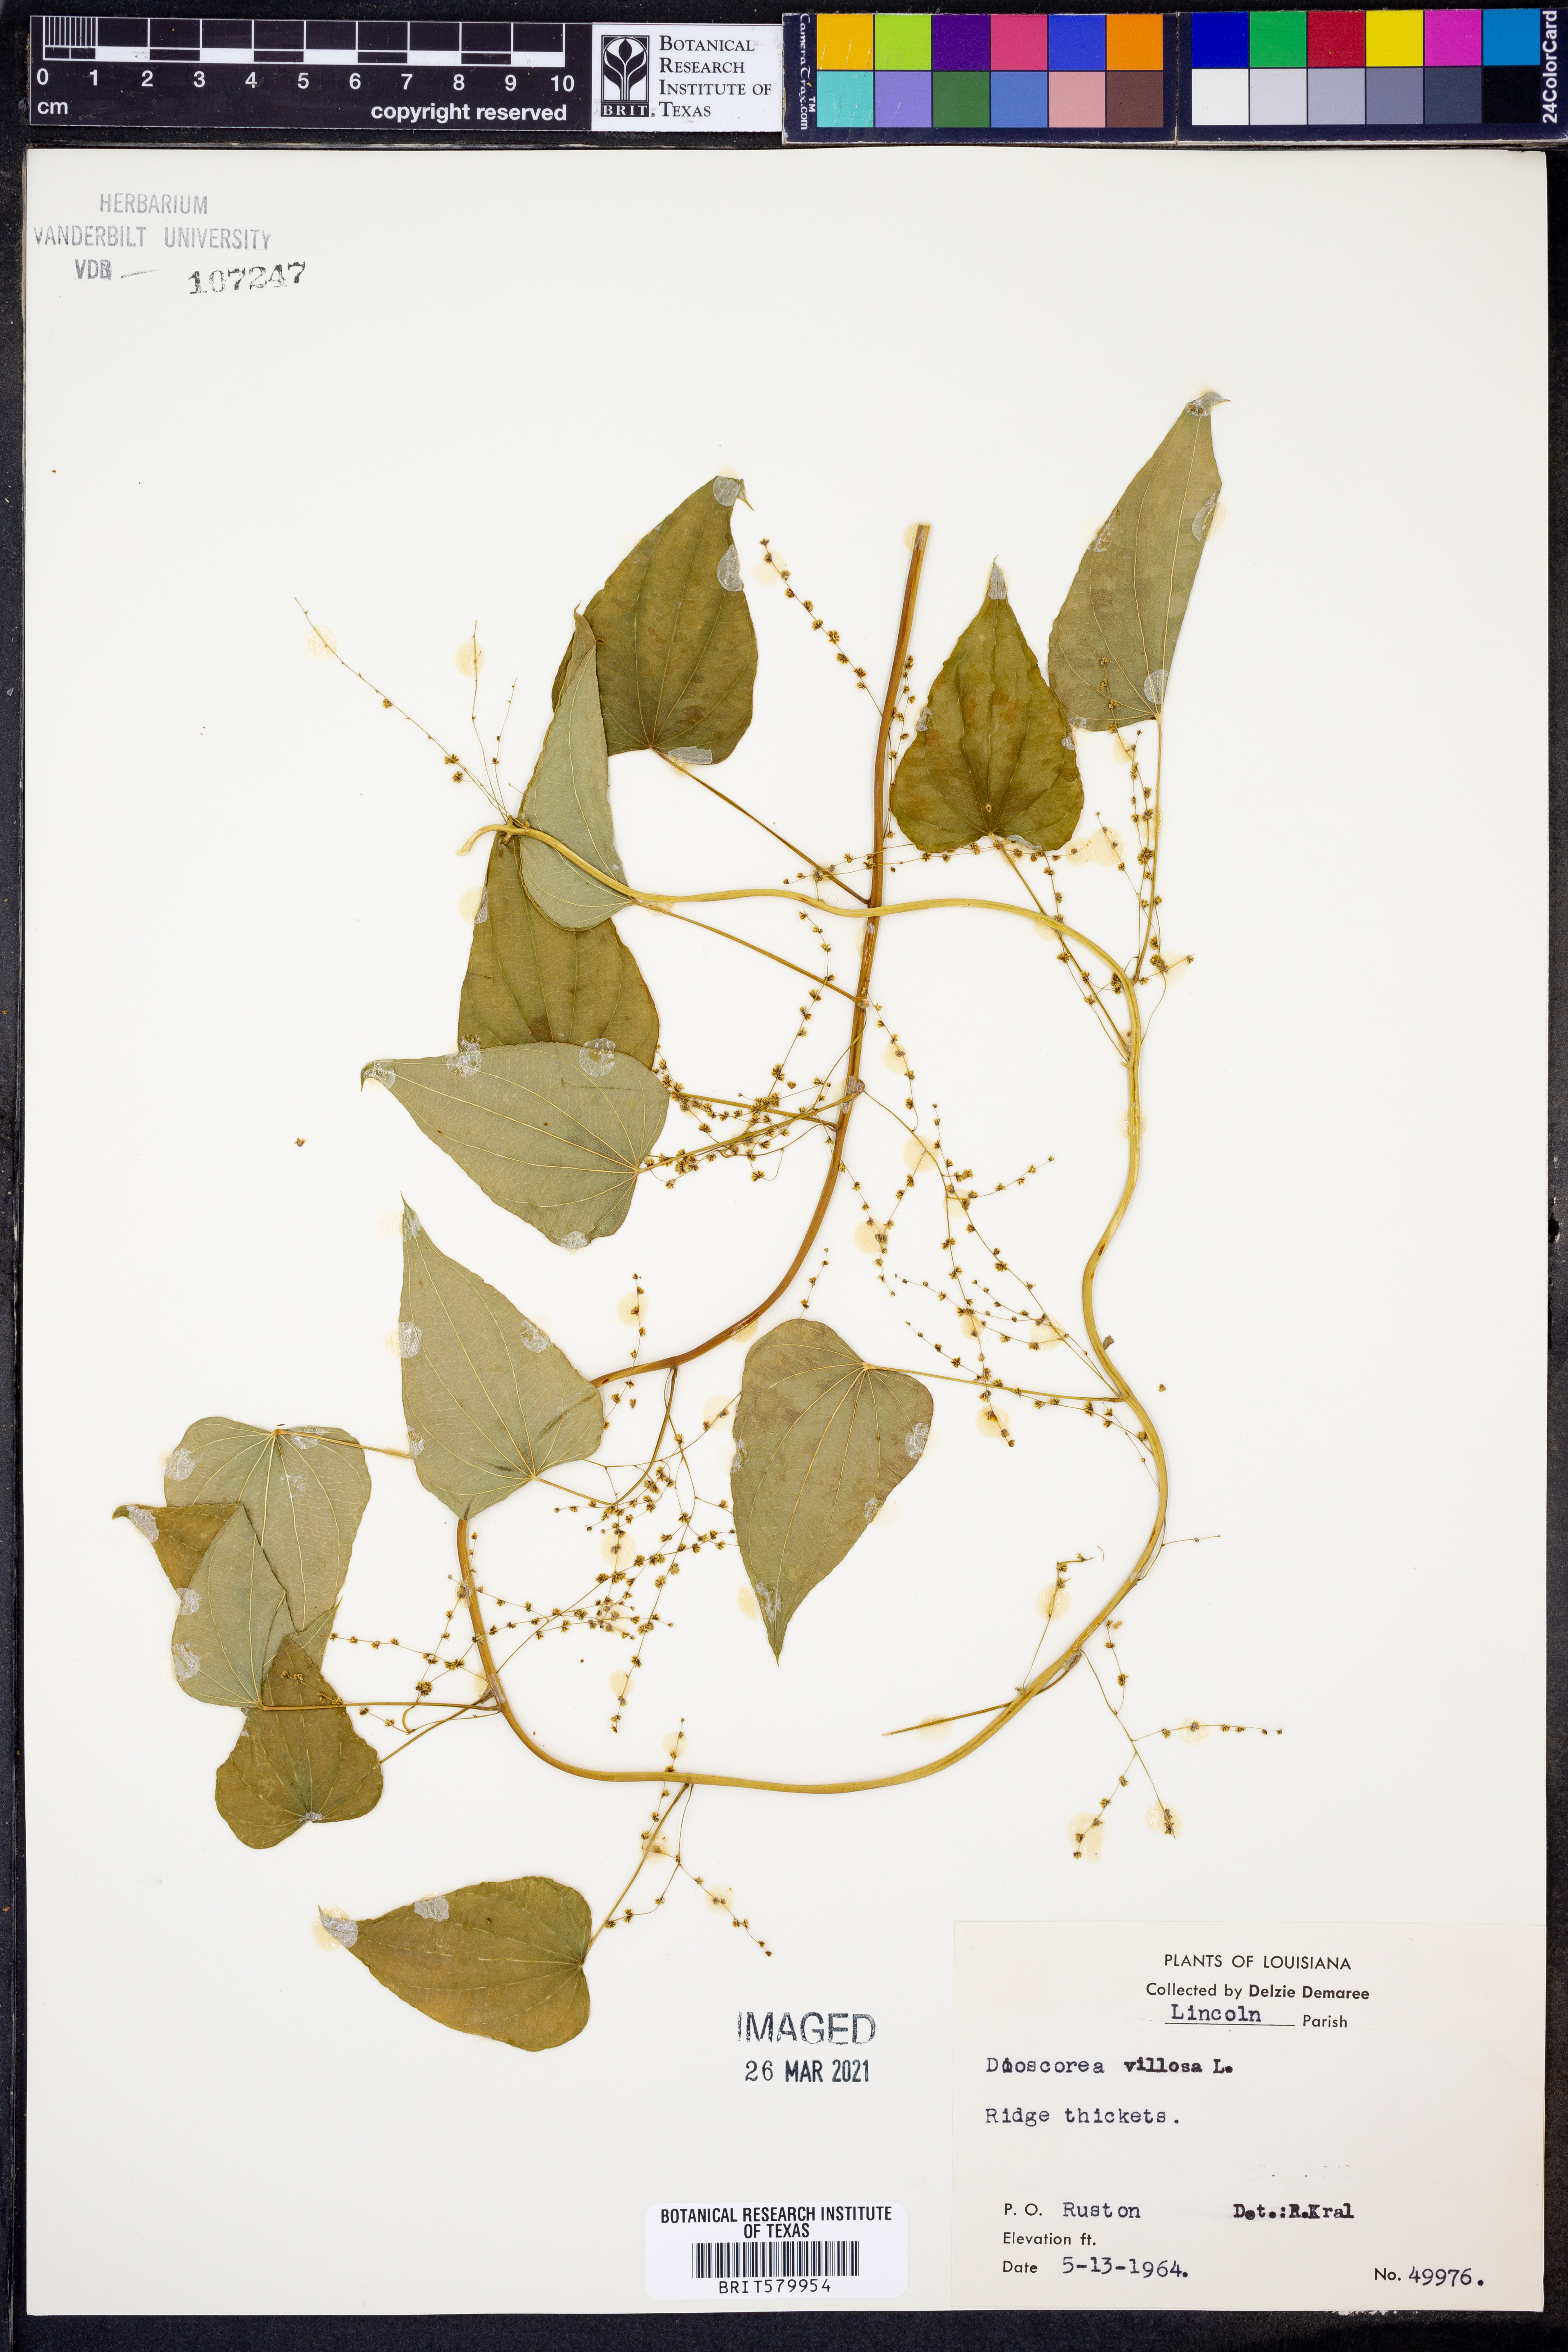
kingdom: Plantae
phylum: Tracheophyta
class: Liliopsida
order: Dioscoreales
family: Dioscoreaceae
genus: Dioscorea
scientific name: Dioscorea villosa
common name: Wild yam
